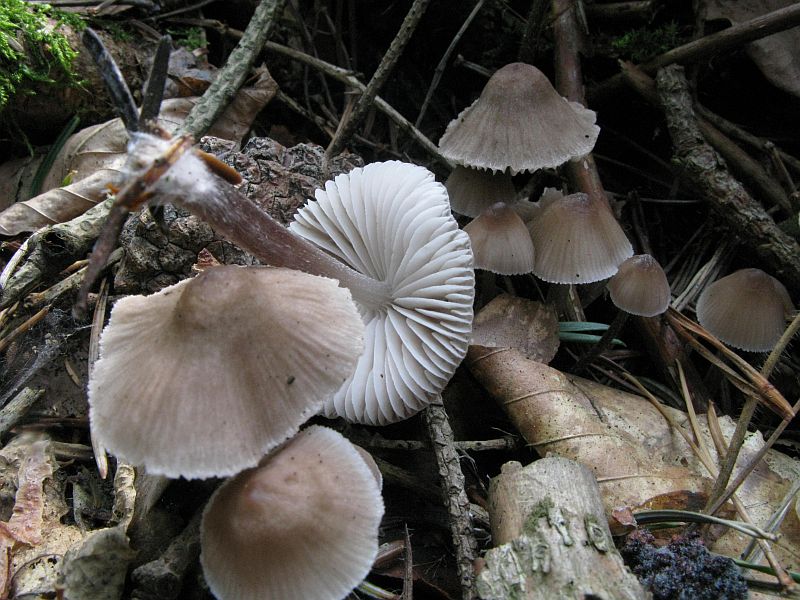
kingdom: Fungi
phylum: Basidiomycota
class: Agaricomycetes
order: Agaricales
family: Mycenaceae
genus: Mycena
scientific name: Mycena zephirus
